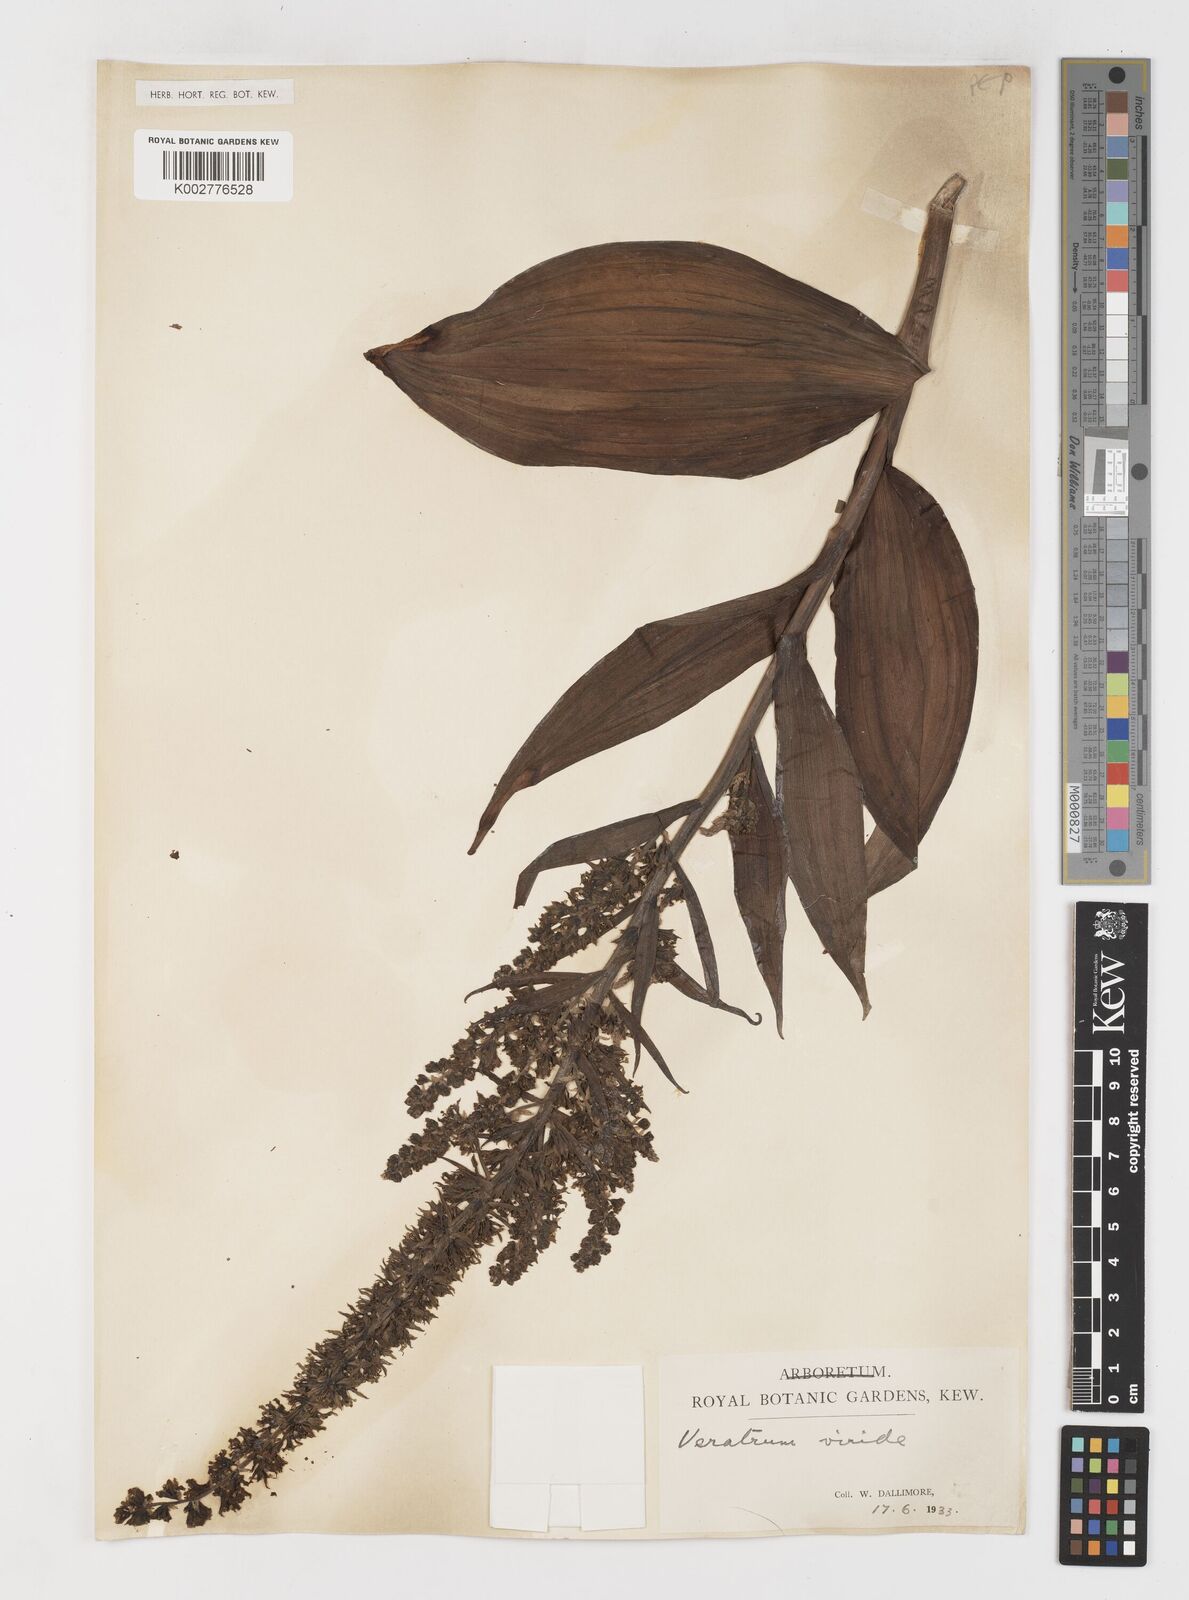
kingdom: Plantae
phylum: Tracheophyta
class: Liliopsida
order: Liliales
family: Melanthiaceae
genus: Veratrum
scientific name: Veratrum
